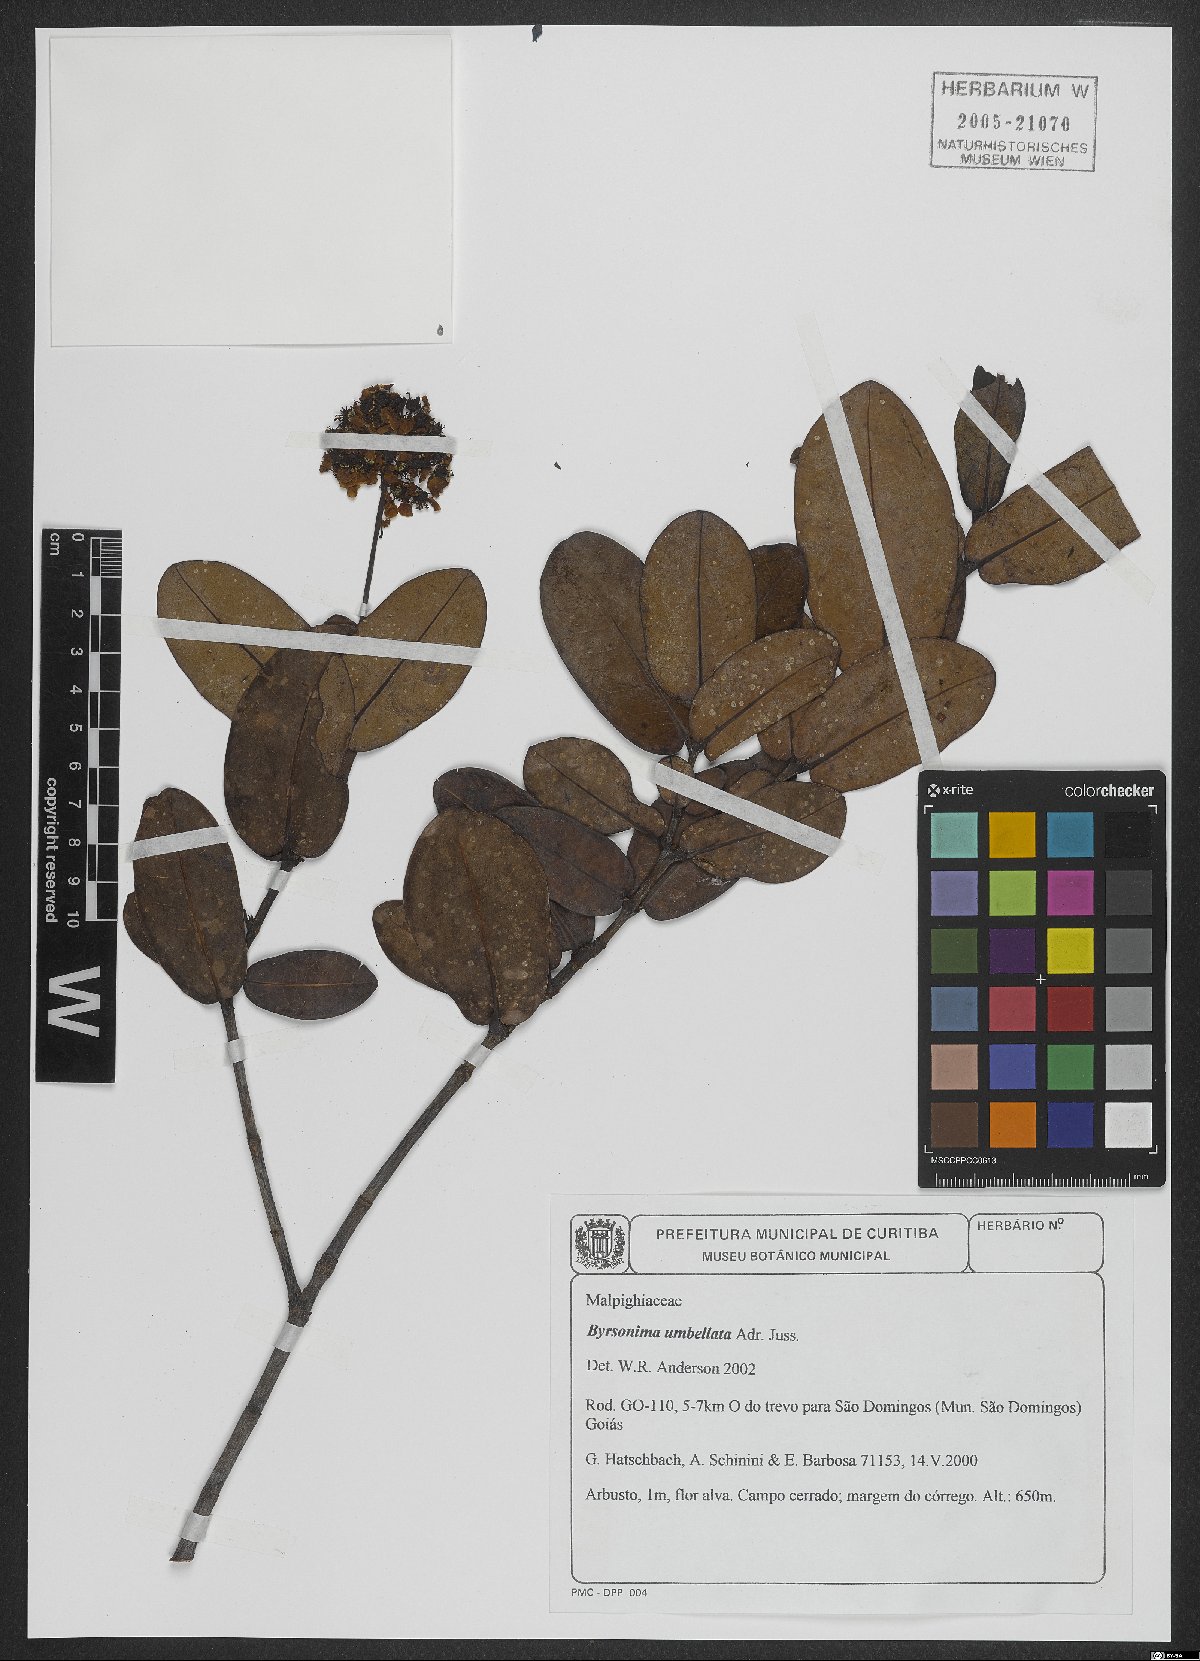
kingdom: Plantae
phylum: Tracheophyta
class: Magnoliopsida
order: Malpighiales
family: Malpighiaceae
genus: Byrsonima
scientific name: Byrsonima umbellata
